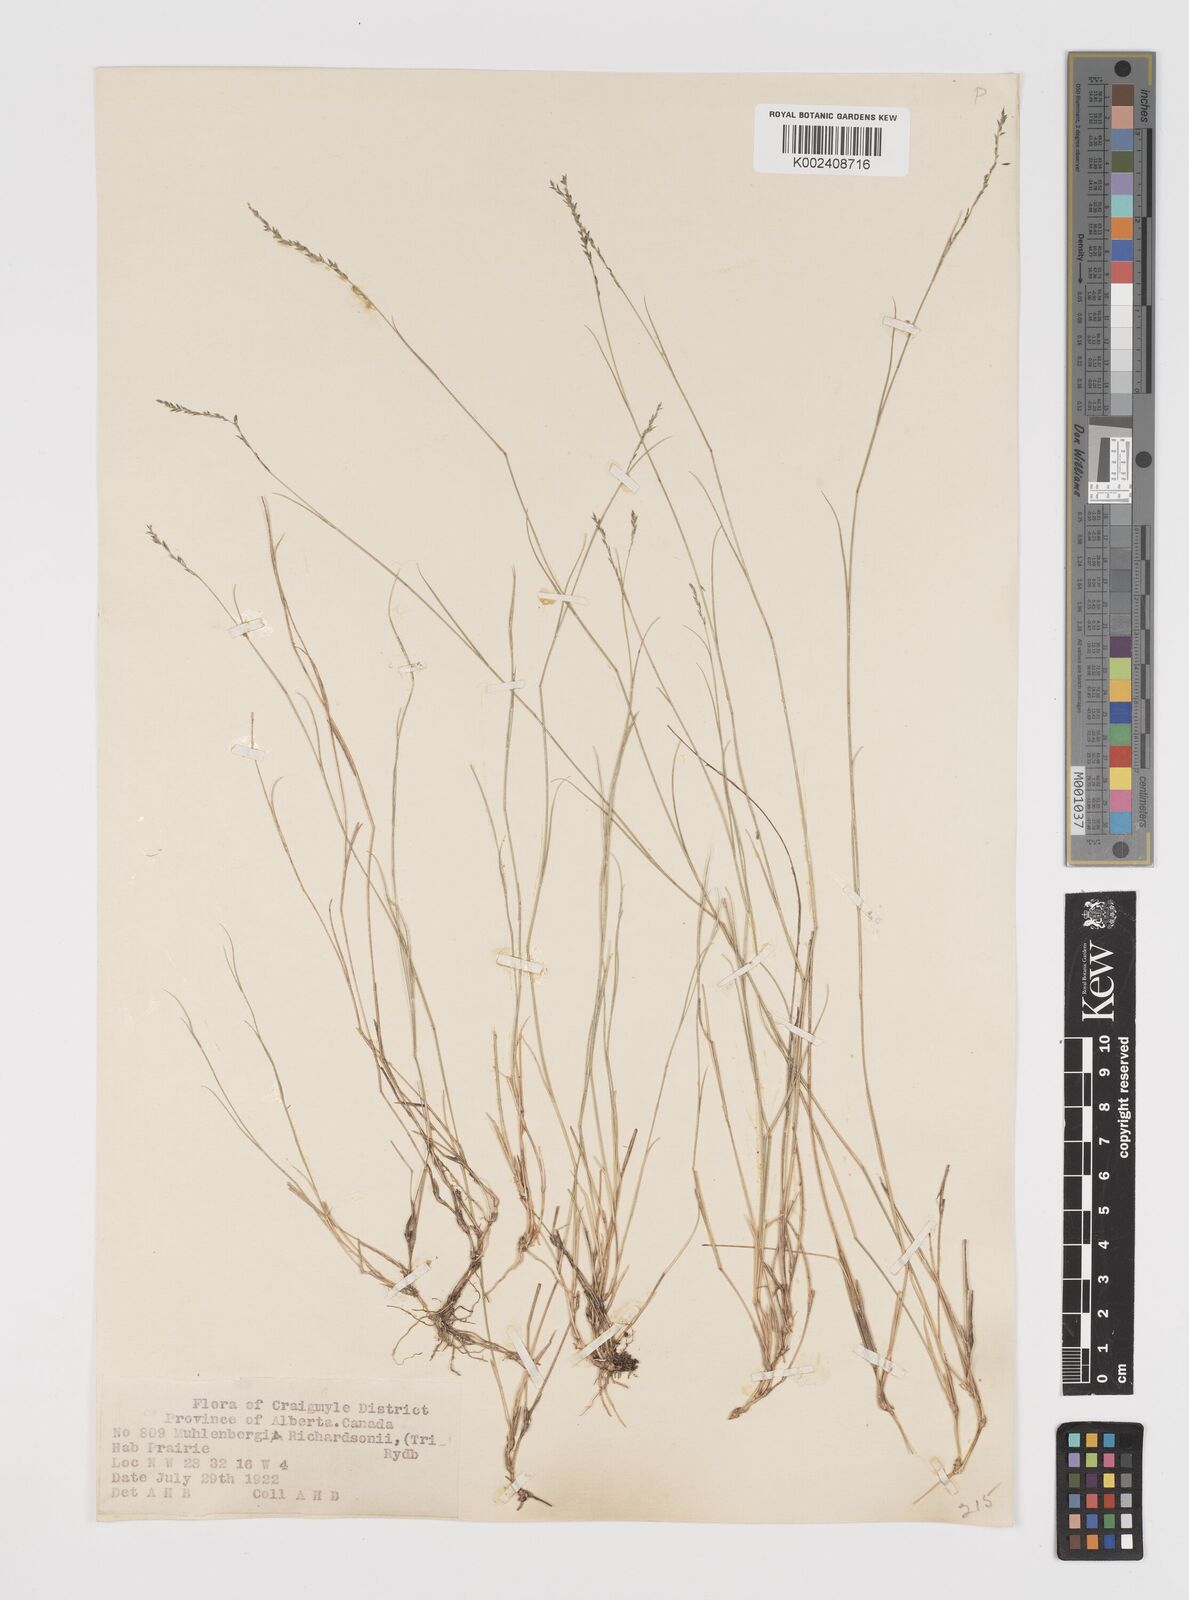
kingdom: Plantae
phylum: Tracheophyta
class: Liliopsida
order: Poales
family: Poaceae
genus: Muhlenbergia
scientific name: Muhlenbergia richardsonis
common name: Mat muhly
